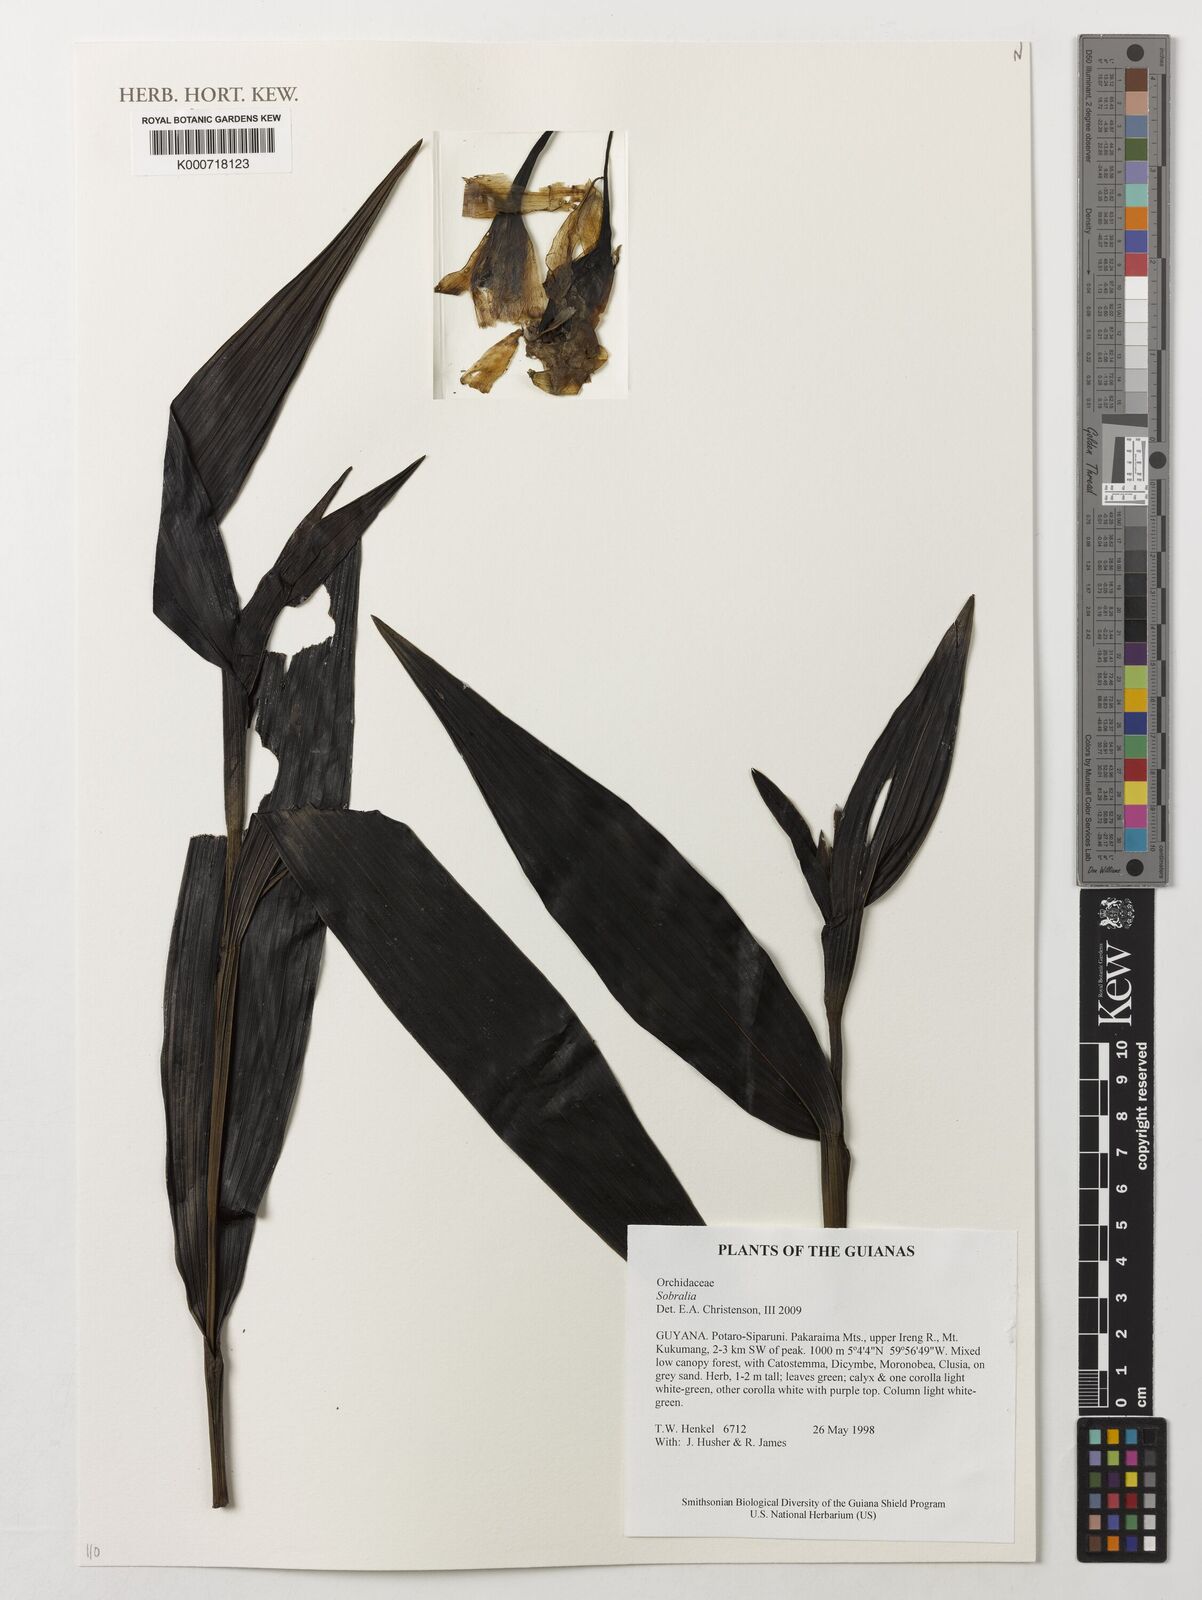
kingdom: Plantae
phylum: Tracheophyta
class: Liliopsida
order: Asparagales
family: Orchidaceae
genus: Sobralia
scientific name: Sobralia
